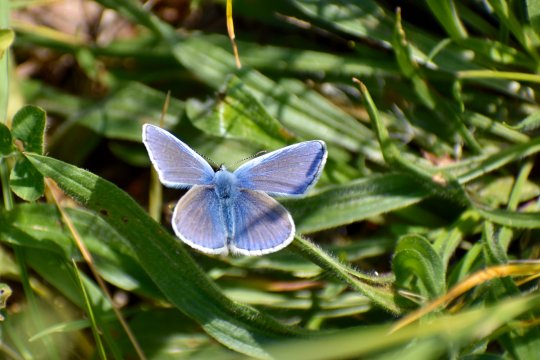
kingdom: Animalia
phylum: Arthropoda
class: Insecta
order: Lepidoptera
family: Lycaenidae
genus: Polyommatus
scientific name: Polyommatus icarus
